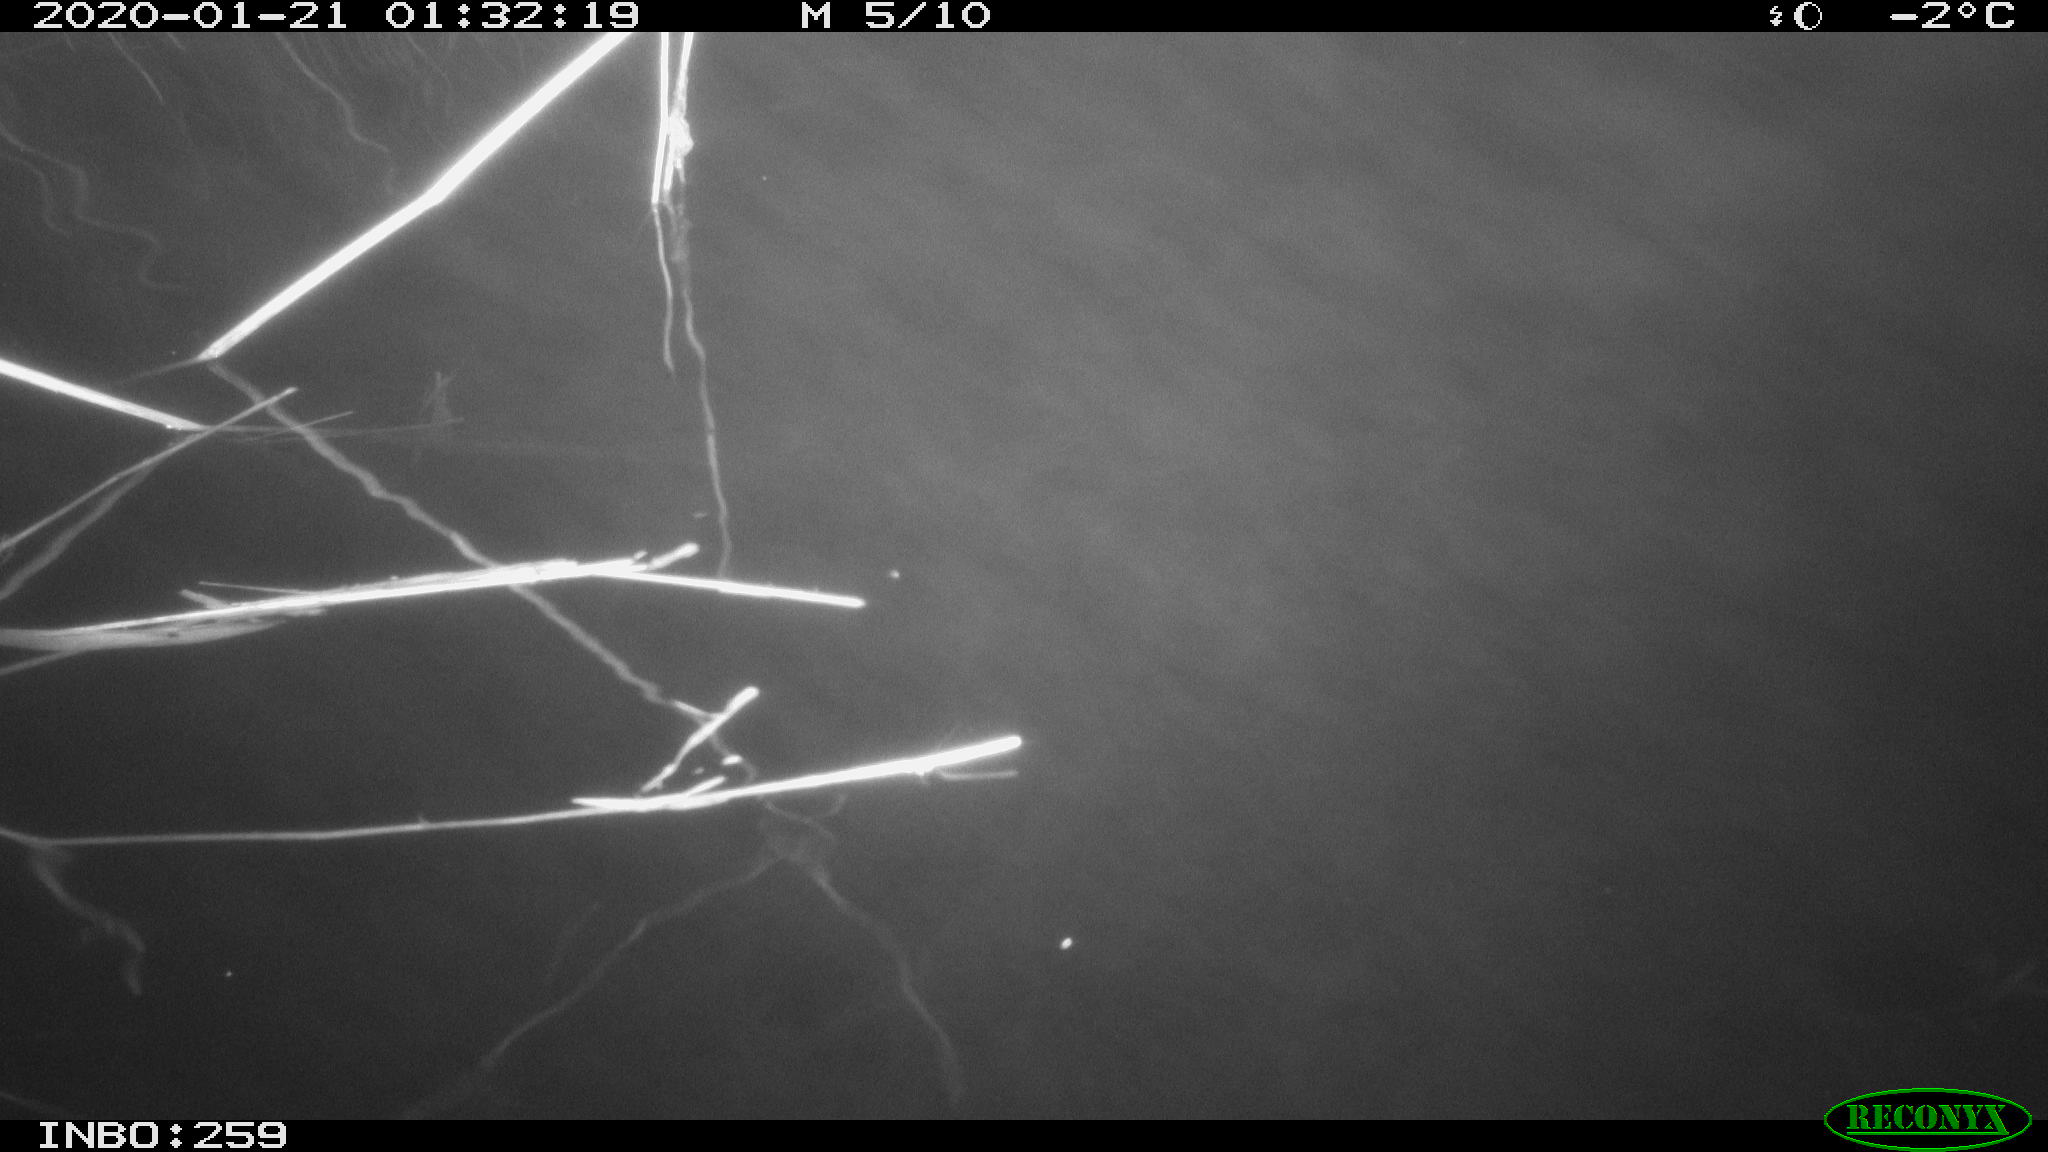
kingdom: Animalia
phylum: Chordata
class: Mammalia
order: Rodentia
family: Cricetidae
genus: Ondatra
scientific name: Ondatra zibethicus
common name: Muskrat
